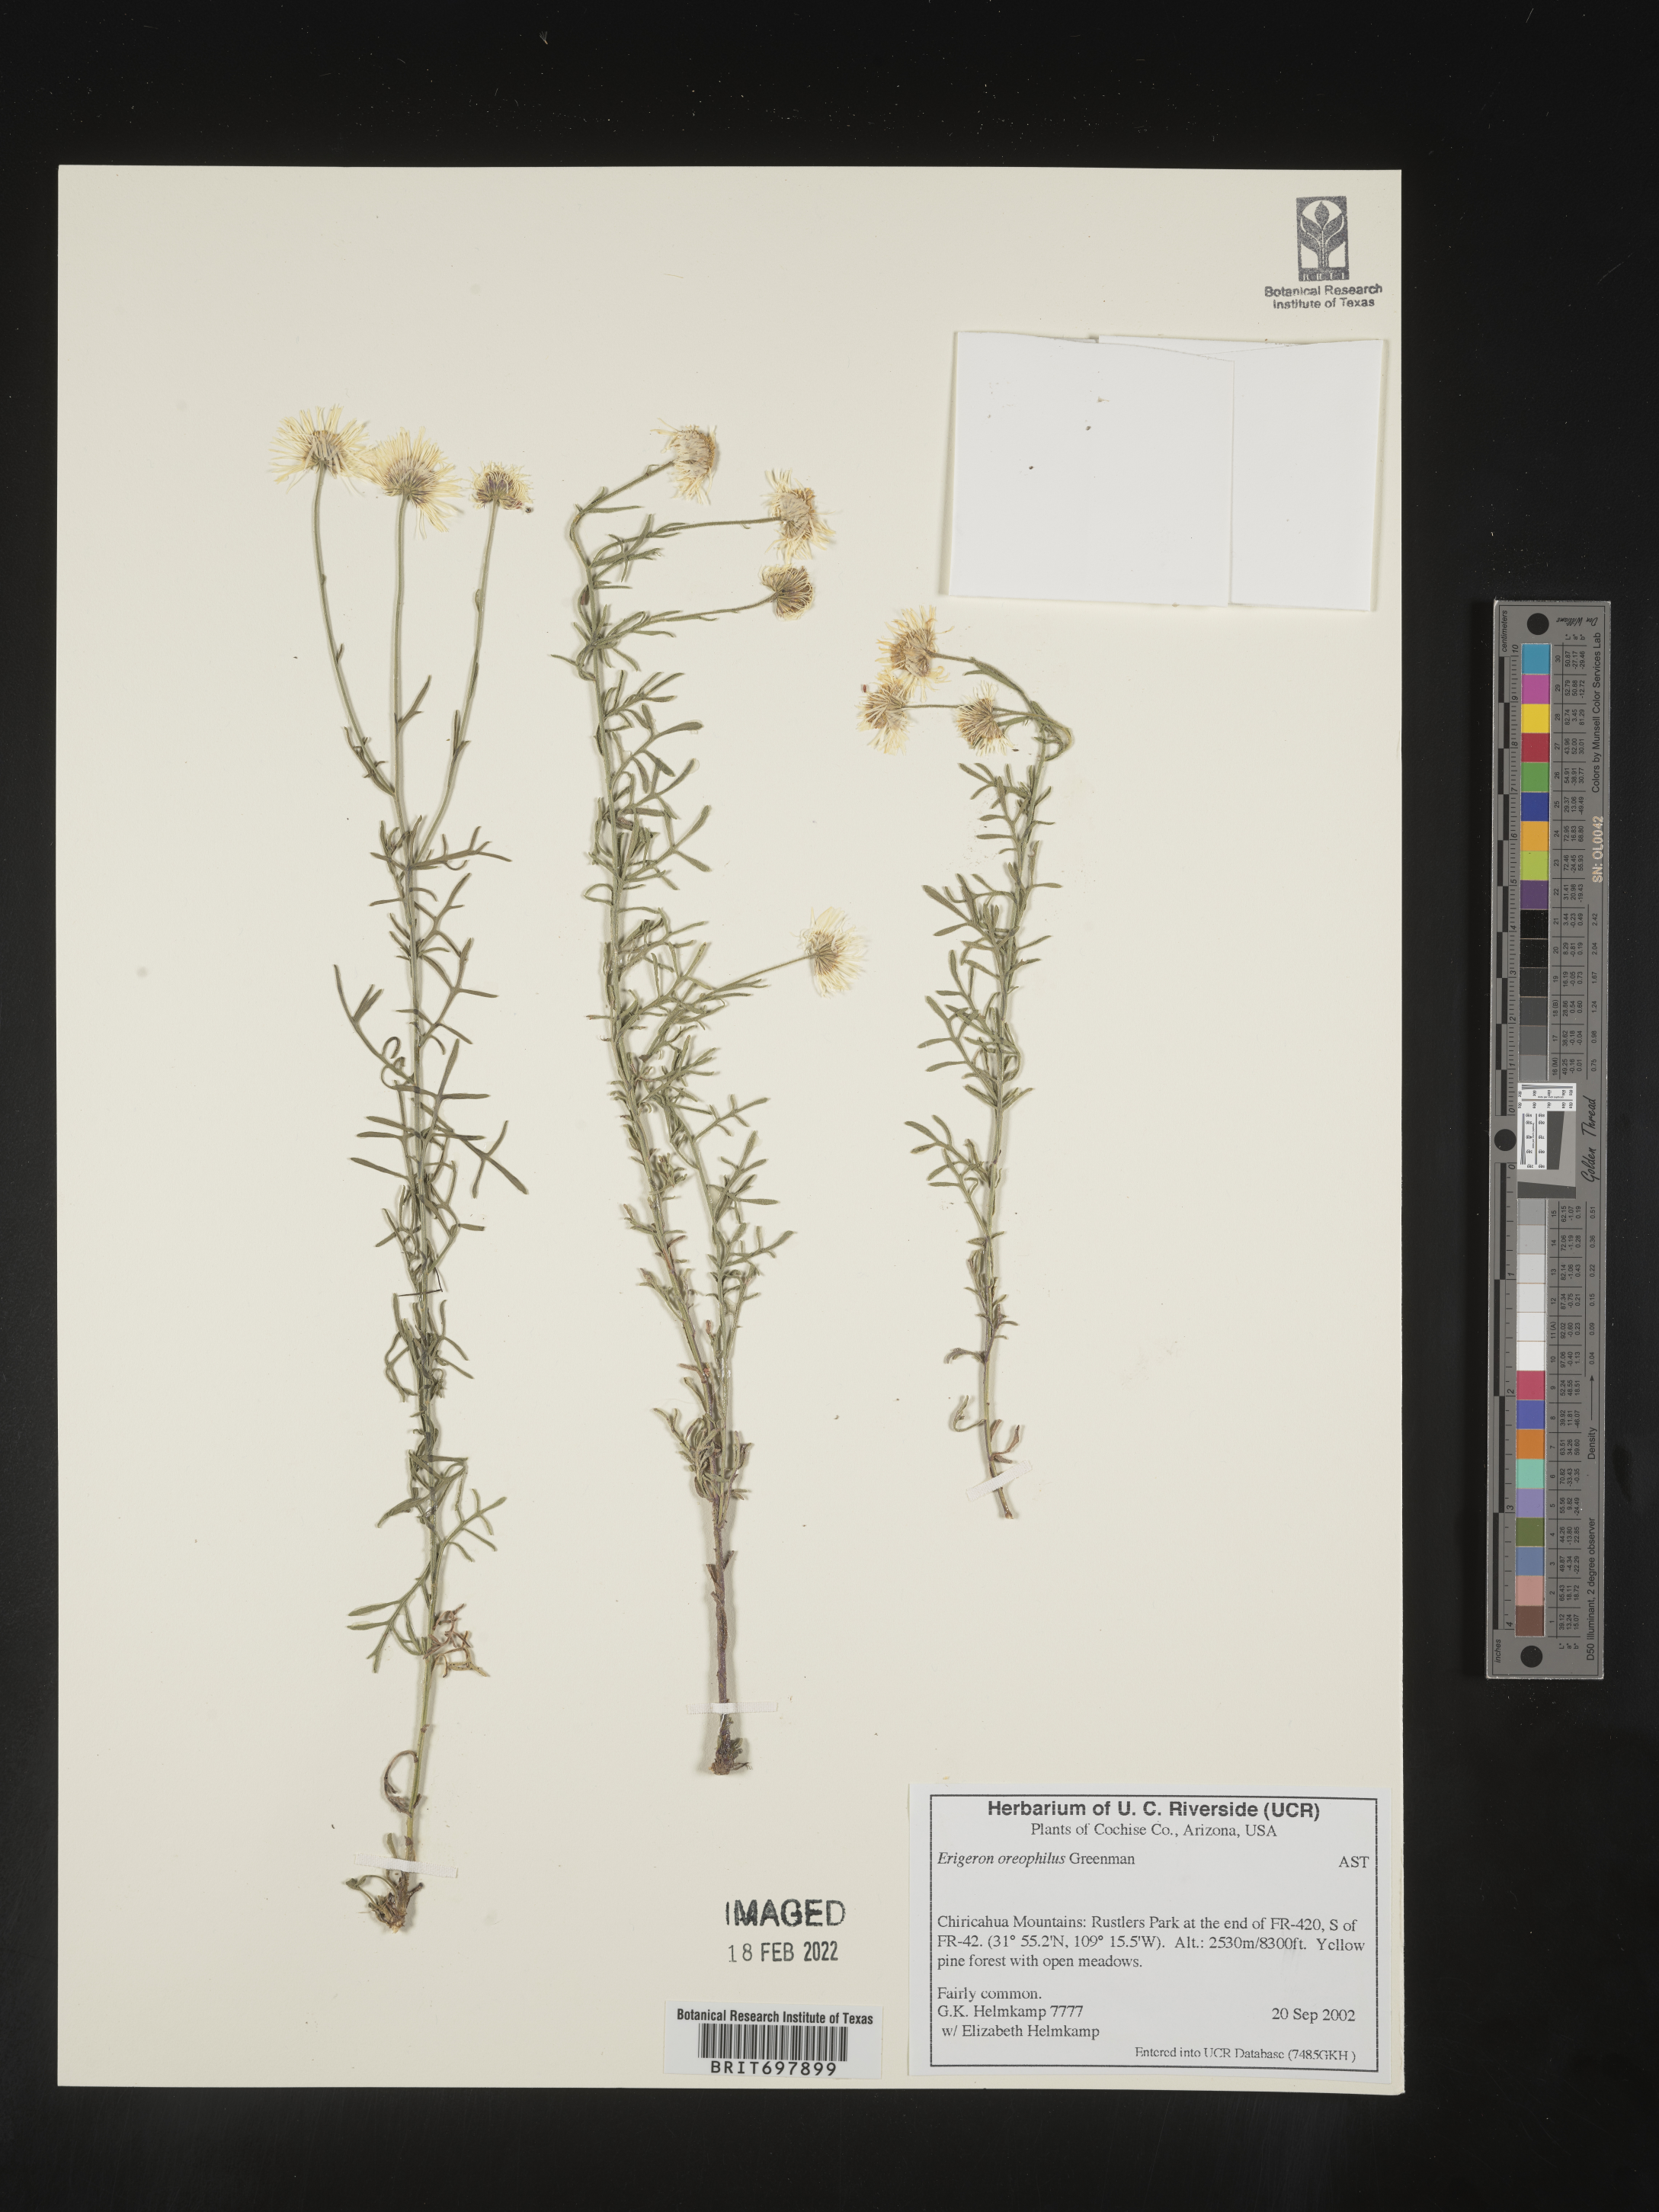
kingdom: Plantae
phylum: Tracheophyta
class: Magnoliopsida
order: Asterales
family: Asteraceae
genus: Erigeron
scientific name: Erigeron oreophilus
